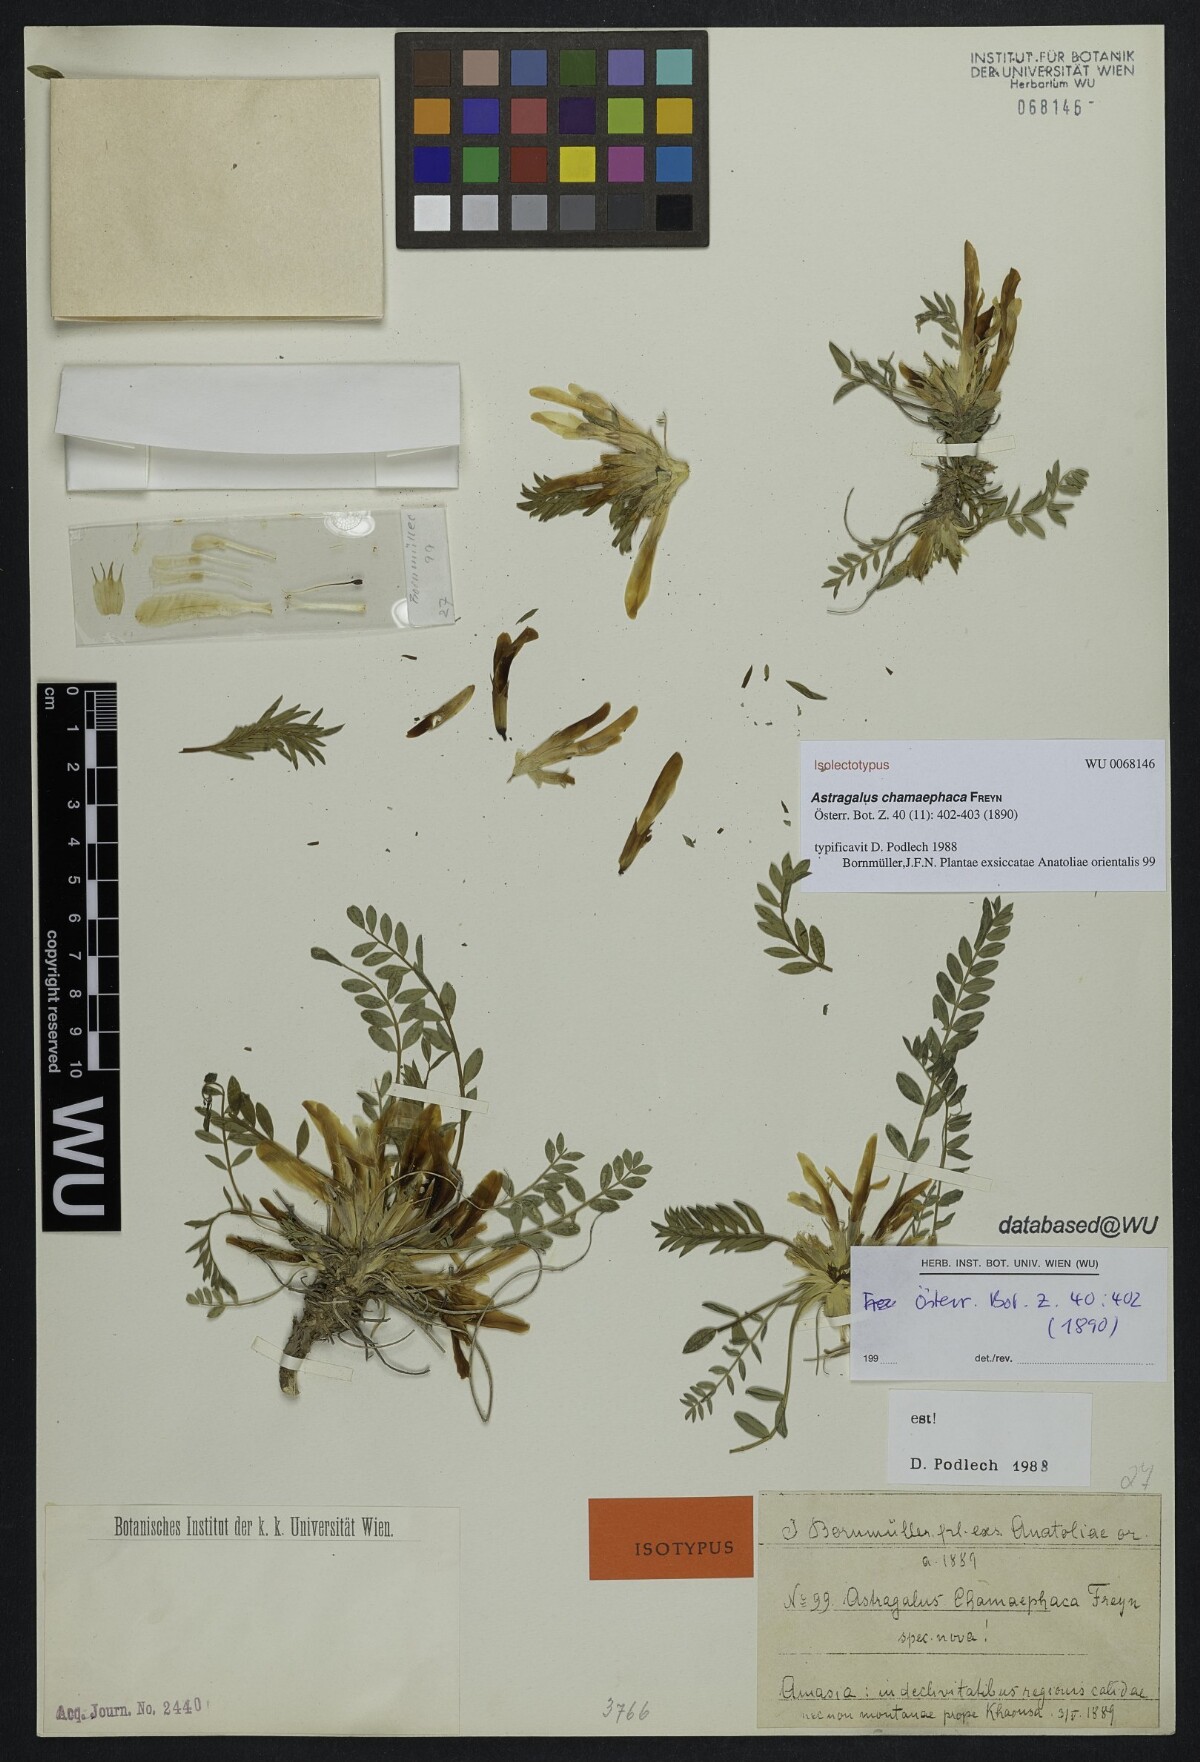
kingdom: Plantae
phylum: Tracheophyta
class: Magnoliopsida
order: Fabales
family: Fabaceae
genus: Astragalus
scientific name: Astragalus chamaephaca
